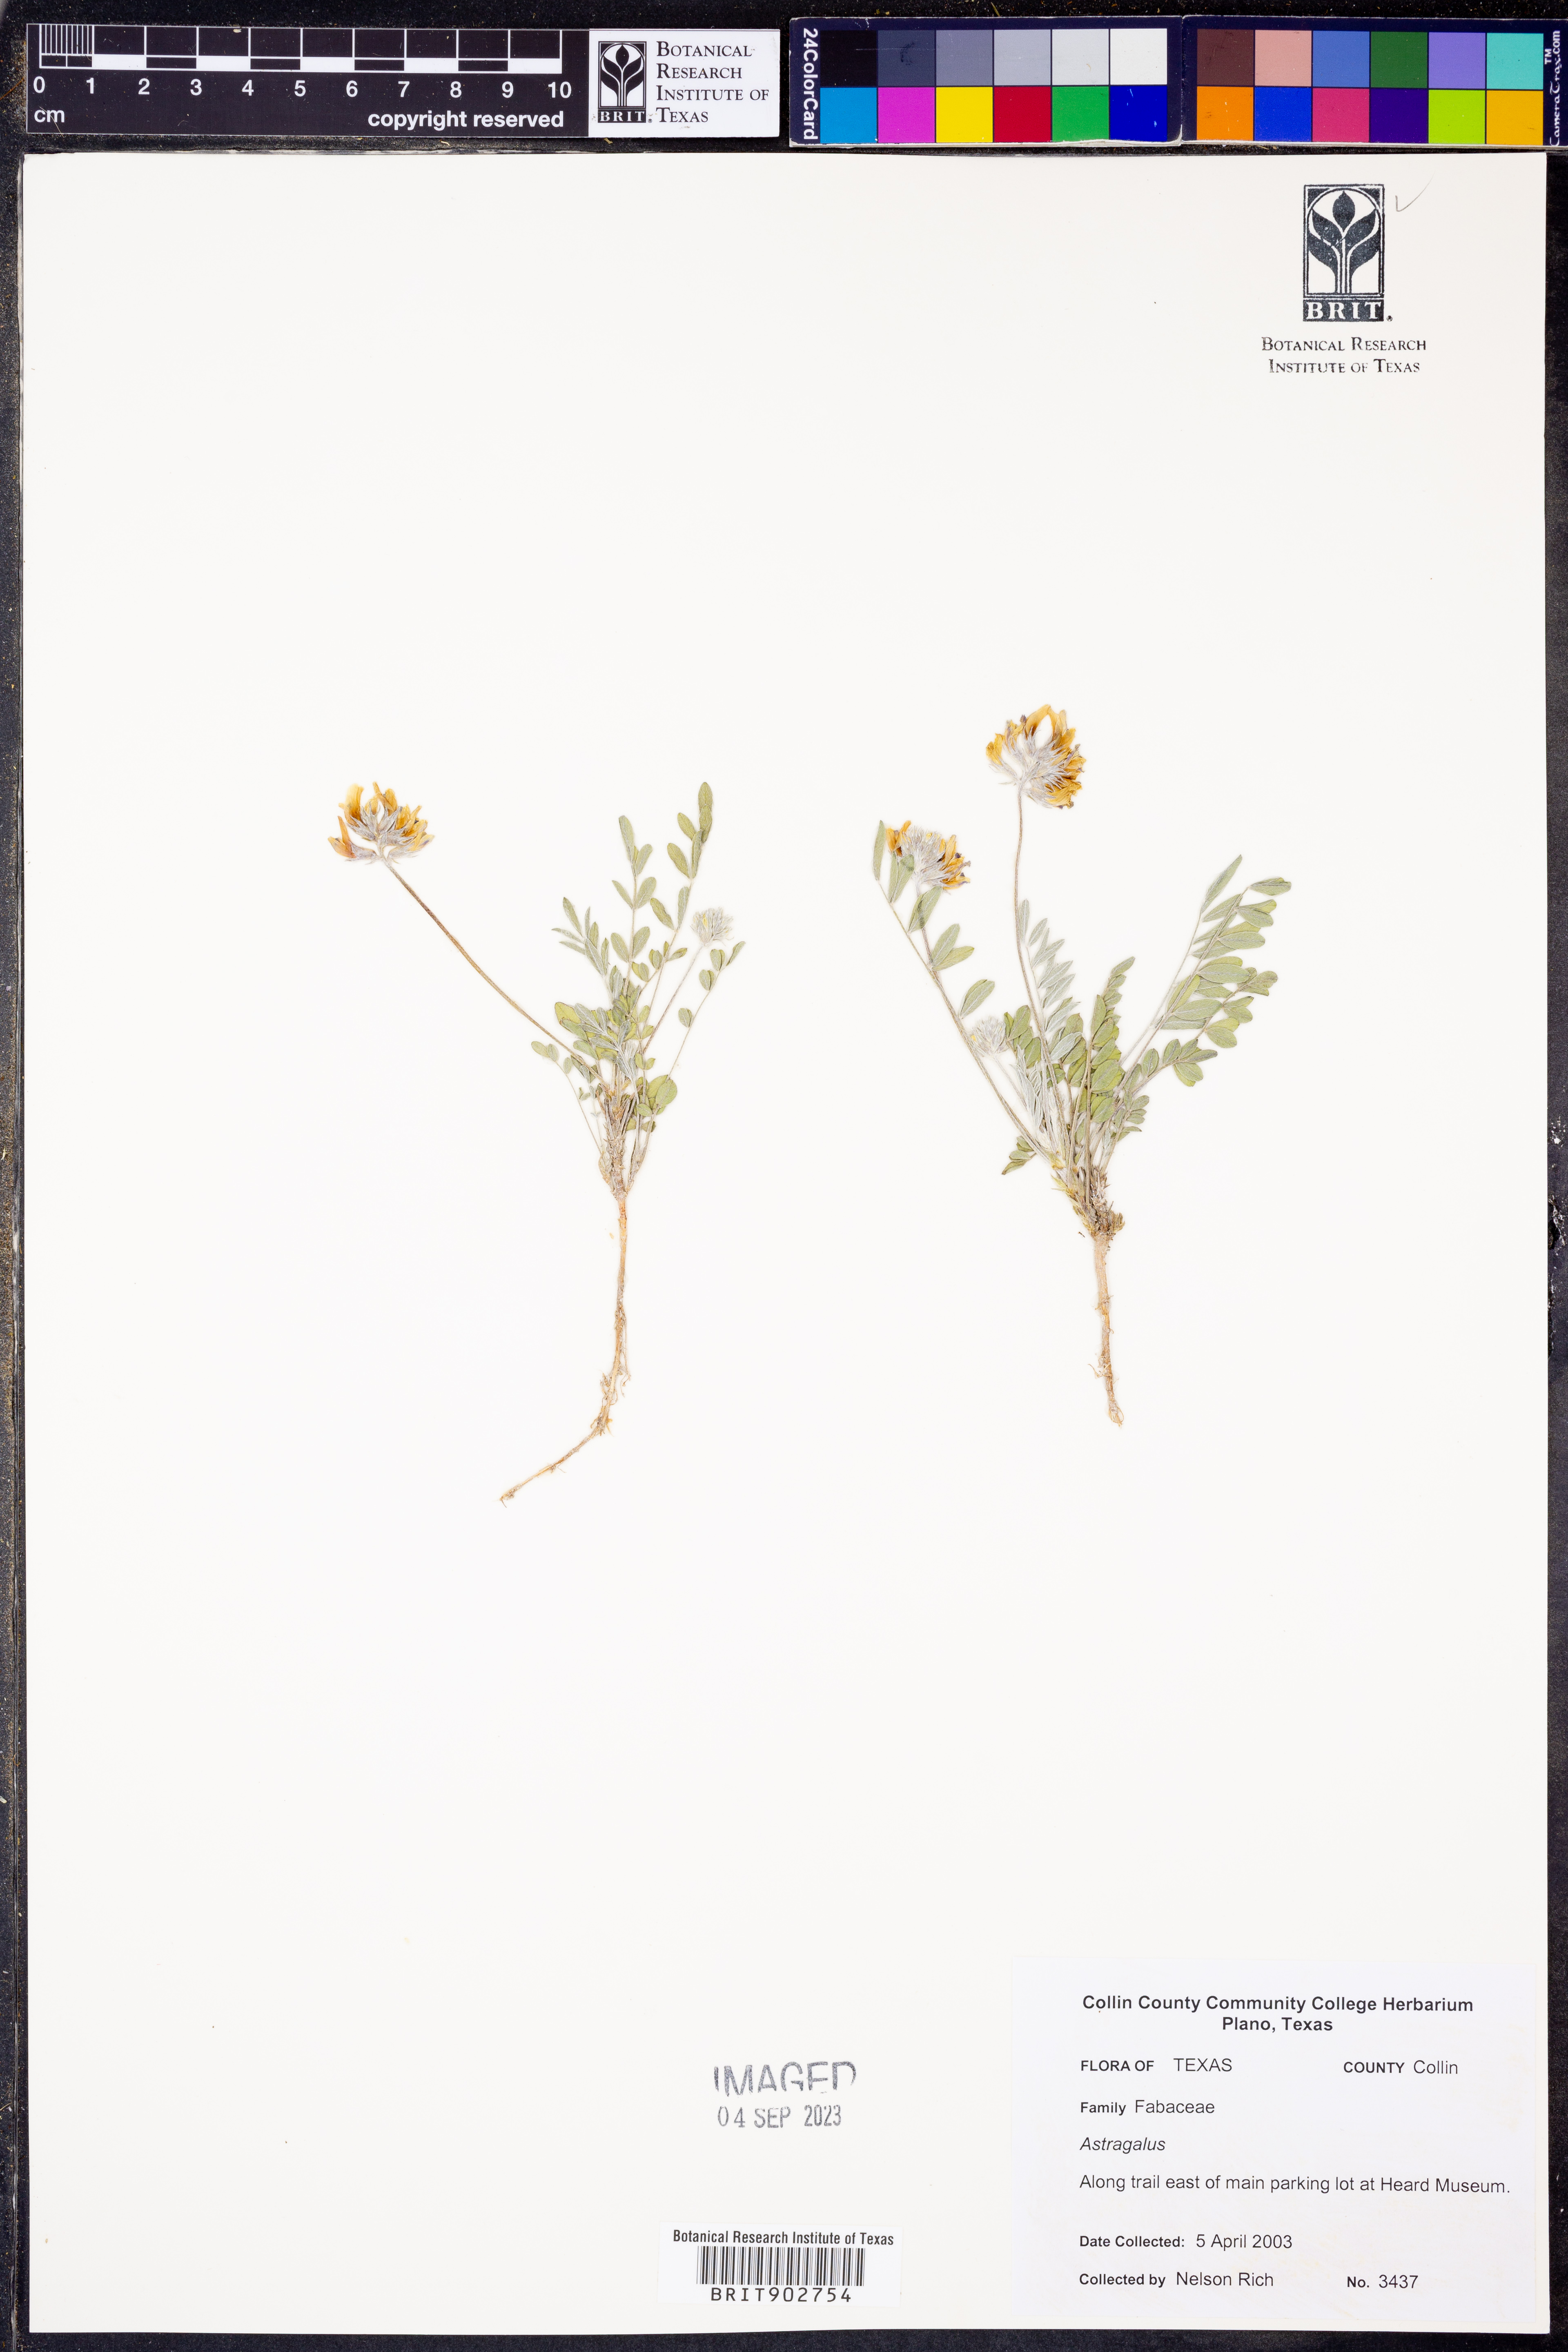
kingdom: Plantae
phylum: Tracheophyta
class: Magnoliopsida
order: Fabales
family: Fabaceae
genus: Astragalus
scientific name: Astragalus
